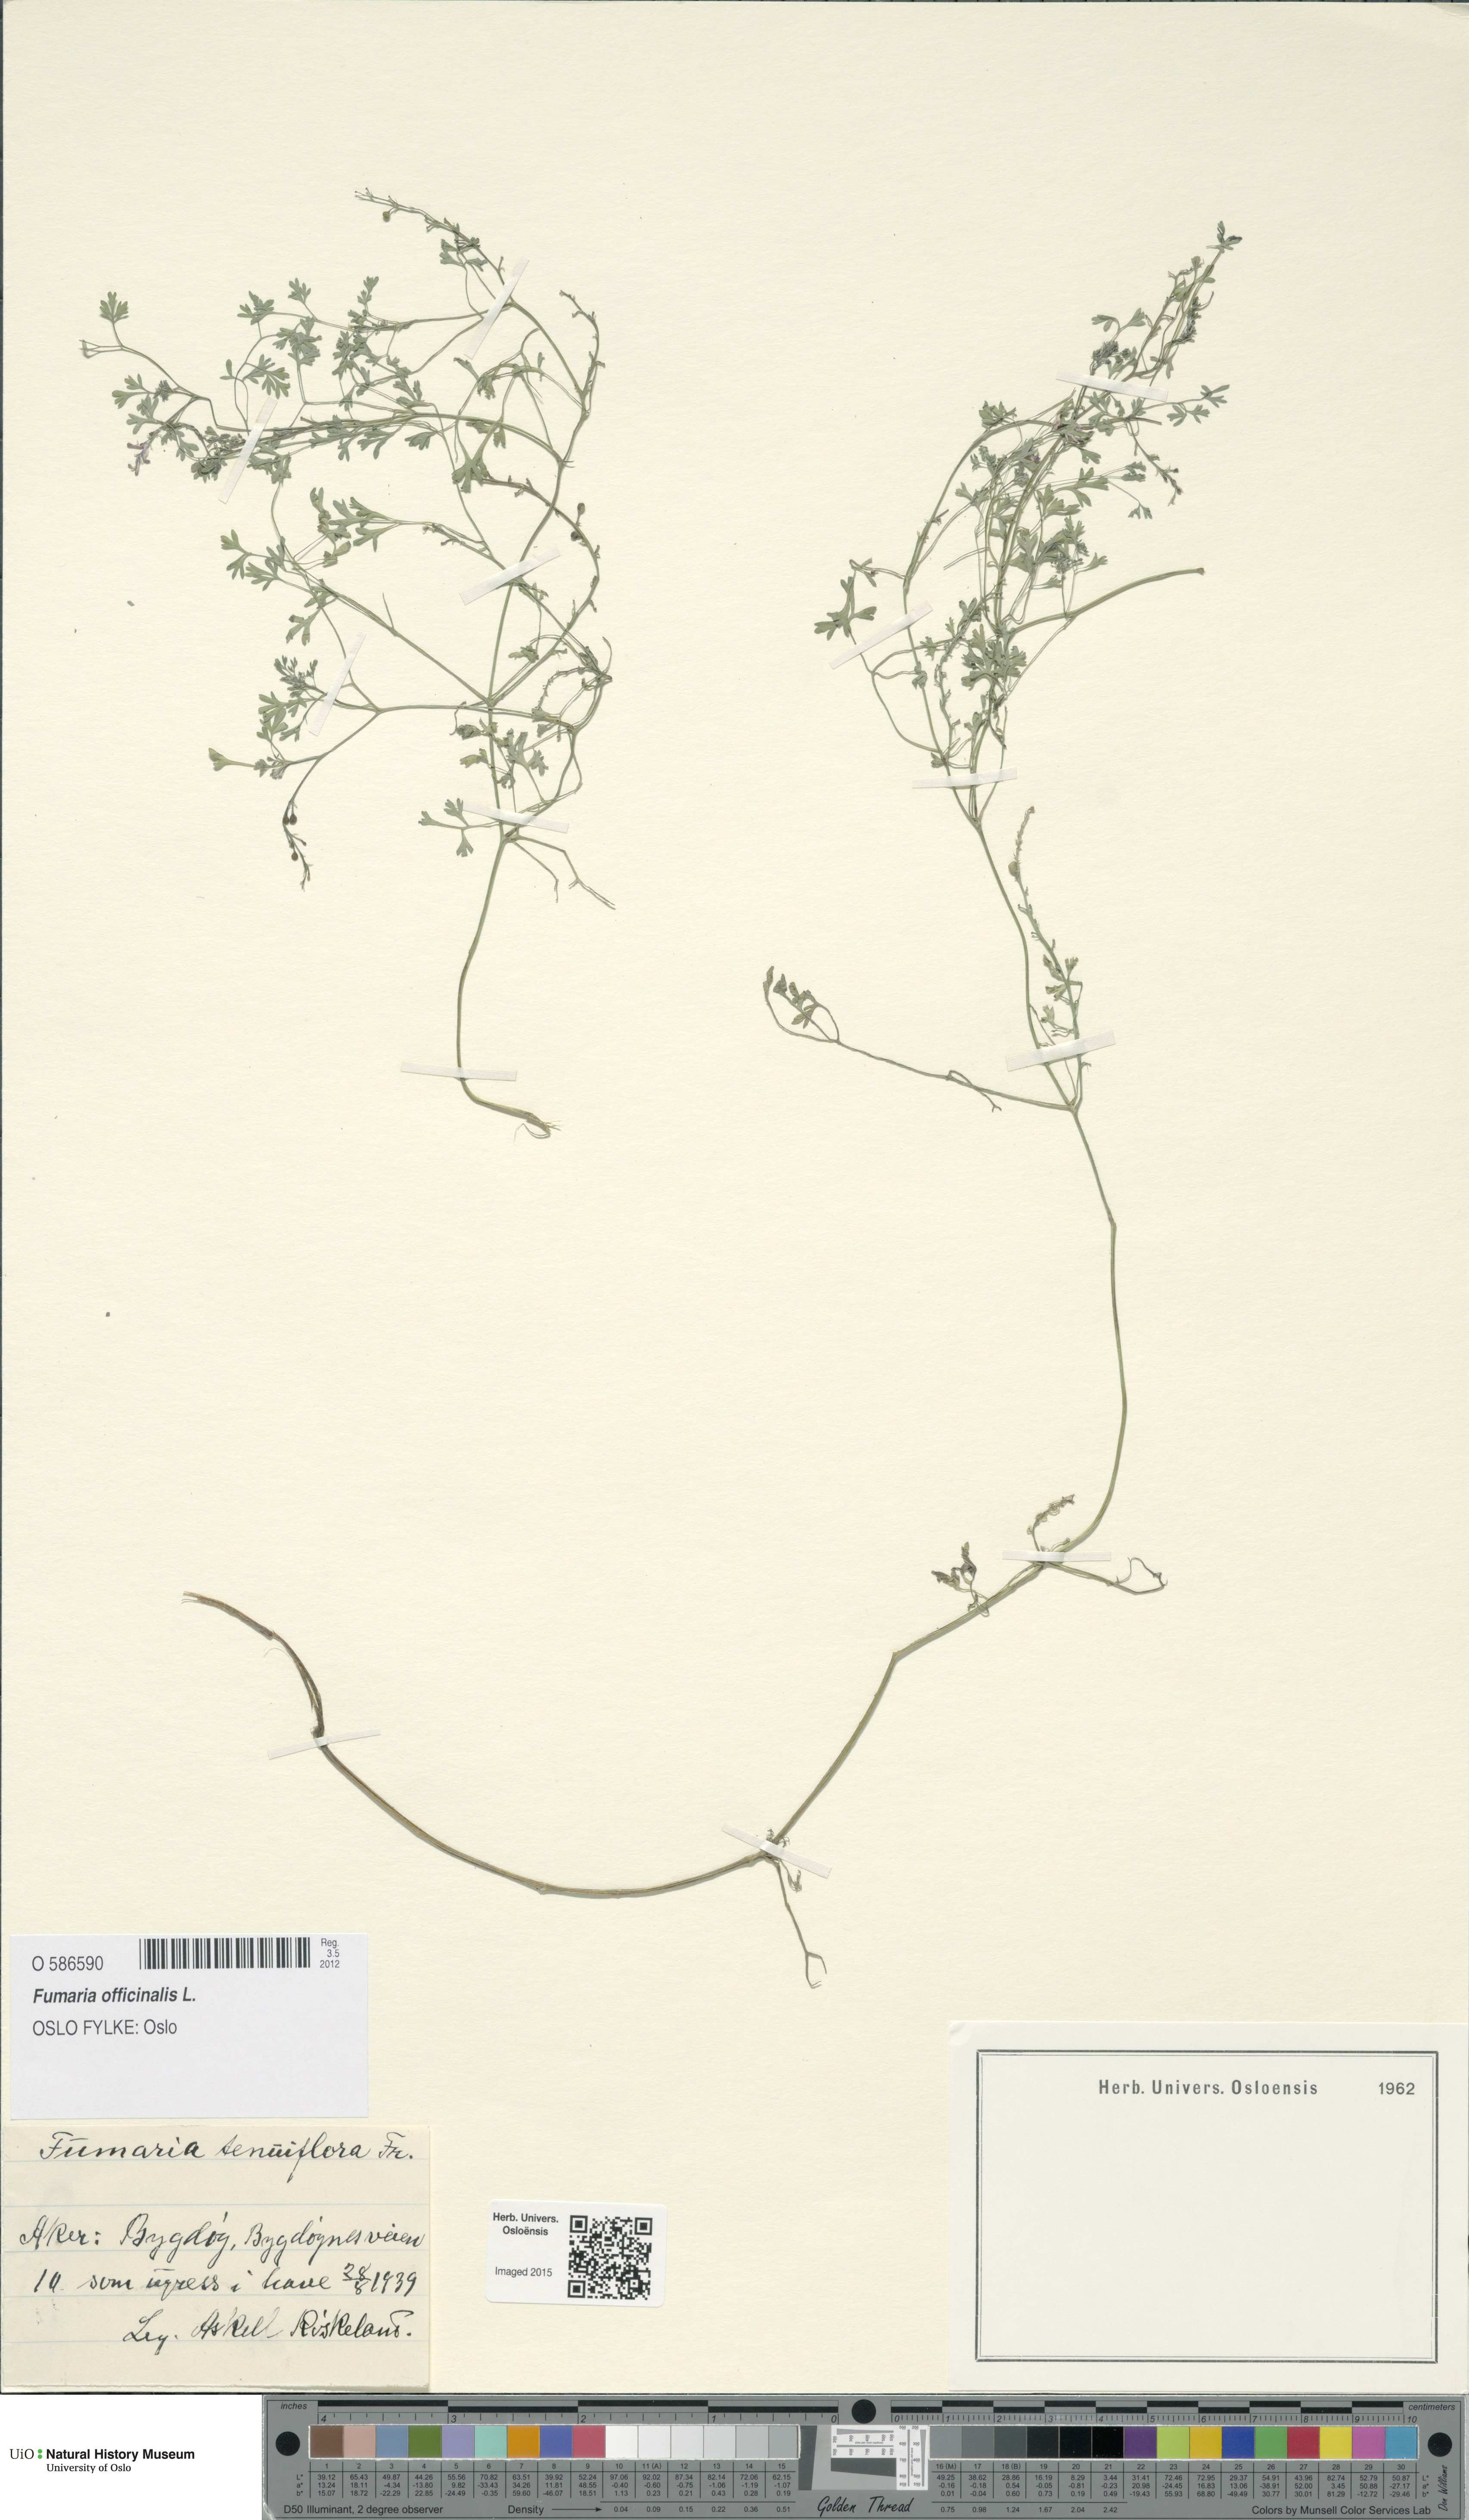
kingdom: Plantae
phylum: Tracheophyta
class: Magnoliopsida
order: Ranunculales
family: Papaveraceae
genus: Fumaria
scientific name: Fumaria officinalis
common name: Common fumitory
